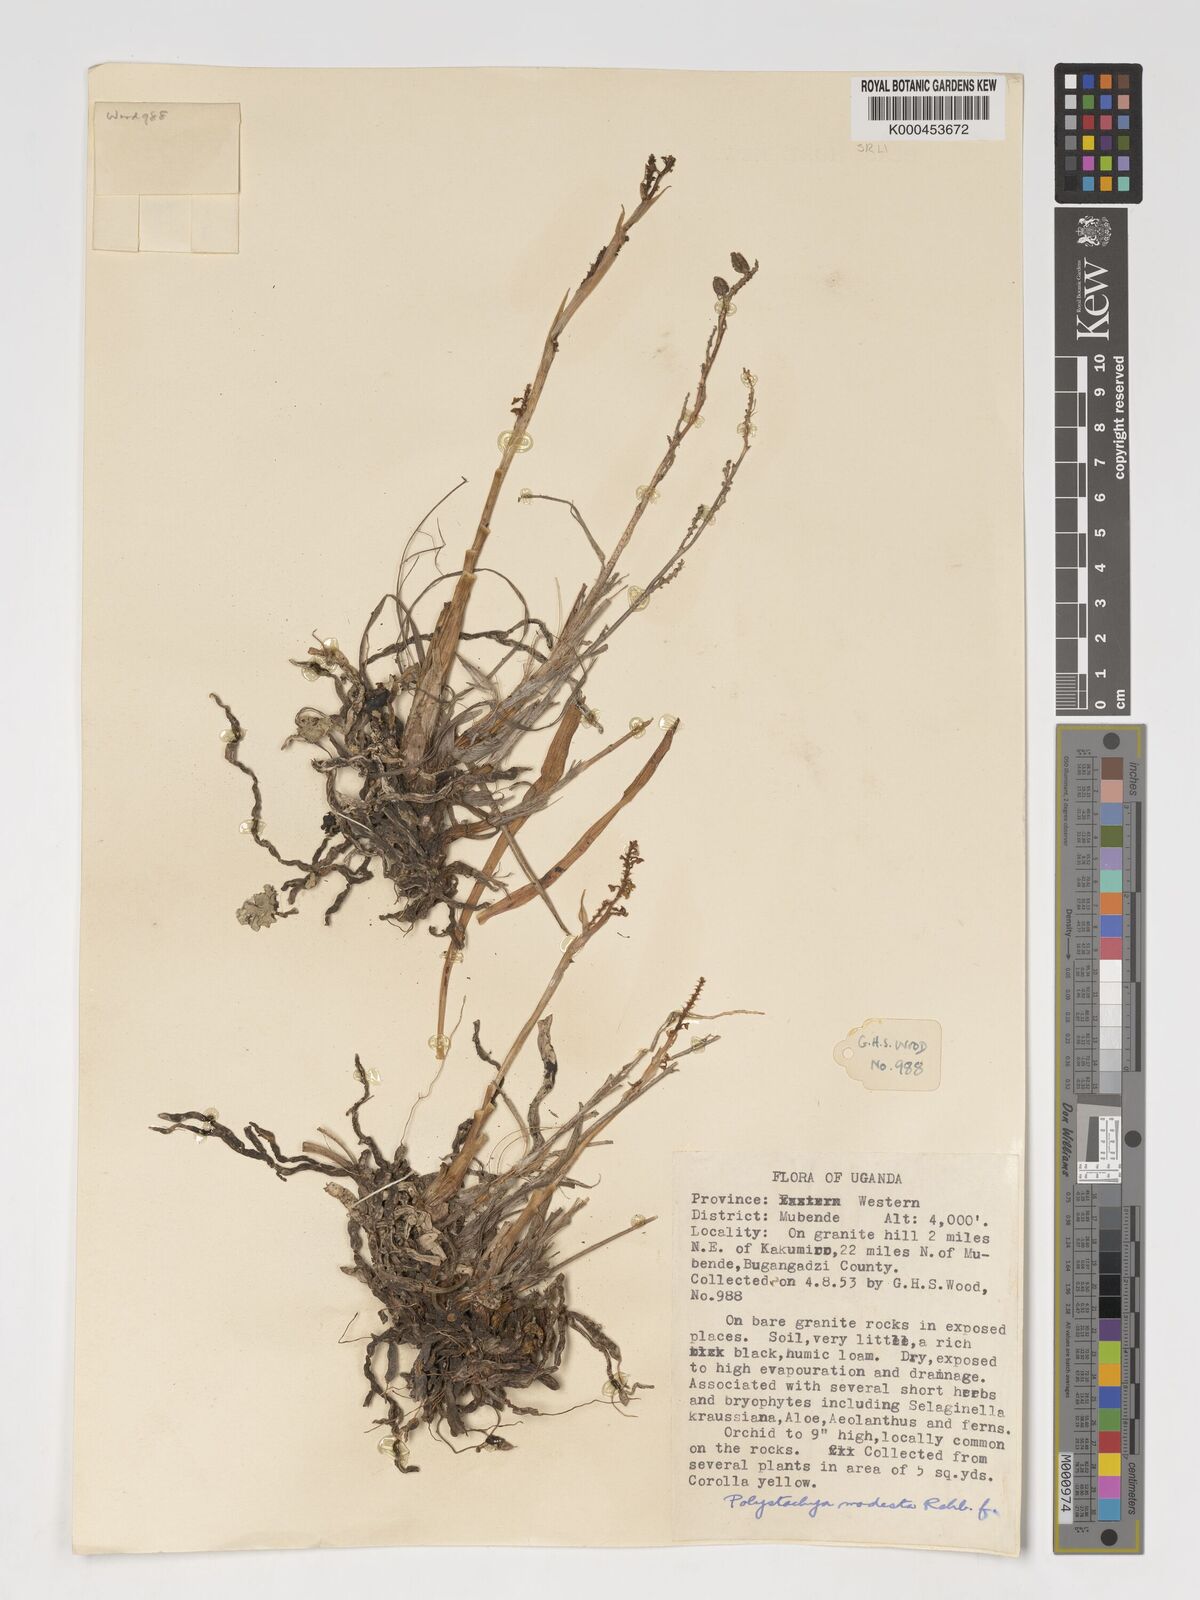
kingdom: Plantae
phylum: Tracheophyta
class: Liliopsida
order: Asparagales
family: Orchidaceae
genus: Polystachya
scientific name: Polystachya modesta
